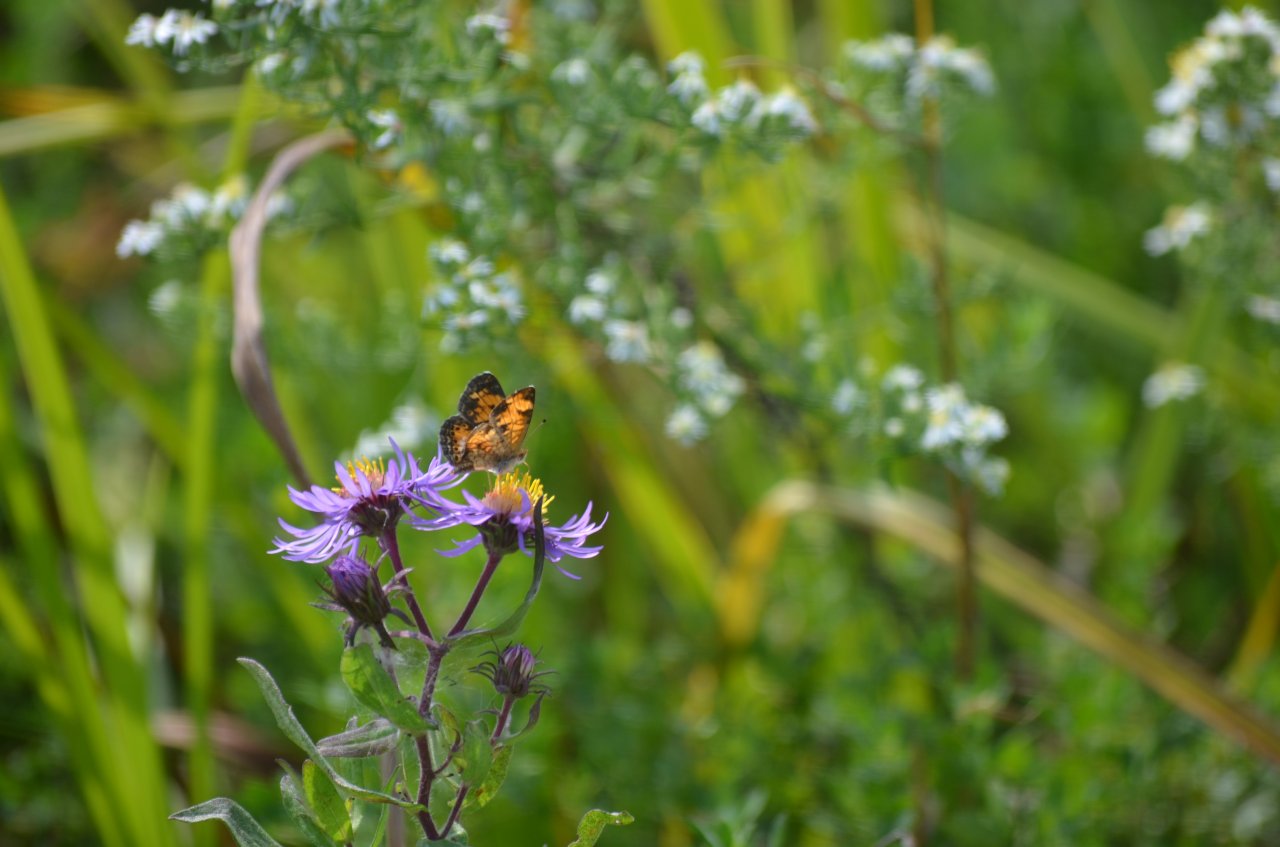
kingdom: Animalia
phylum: Arthropoda
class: Insecta
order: Lepidoptera
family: Nymphalidae
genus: Phyciodes
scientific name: Phyciodes tharos
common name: Pearl Crescent
